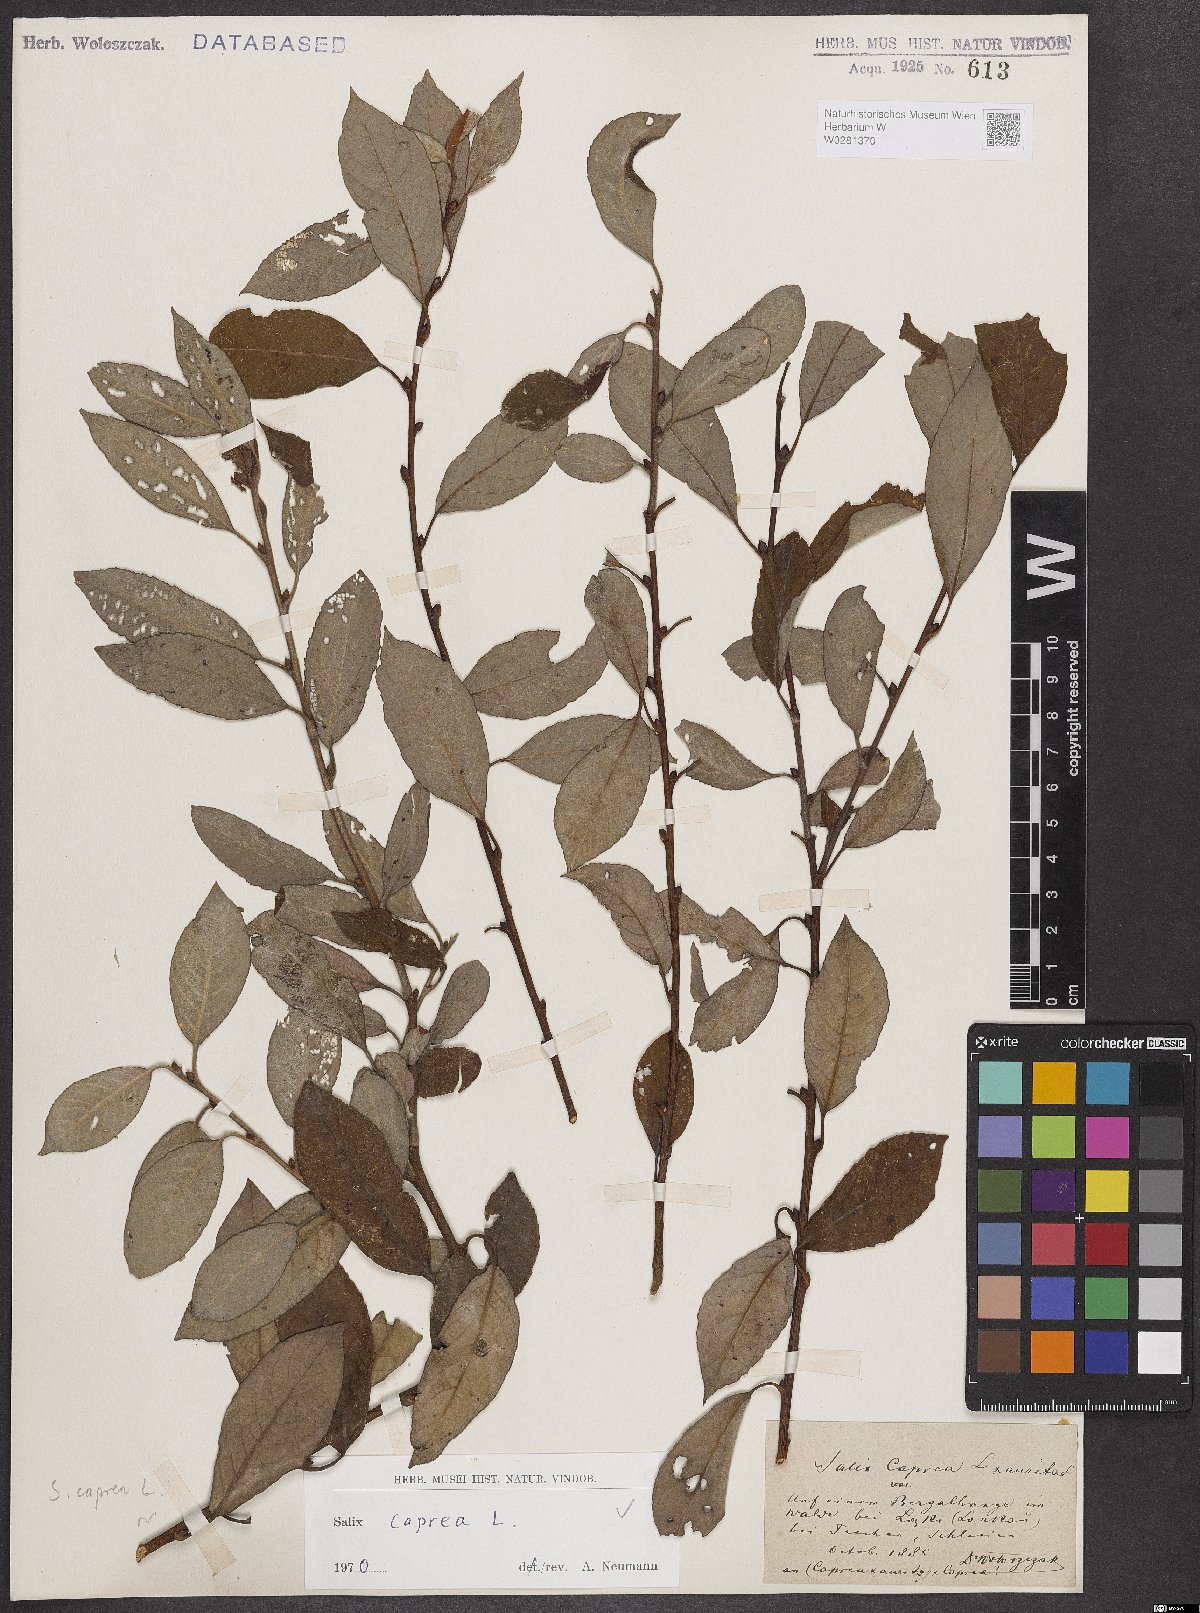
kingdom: Plantae
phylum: Tracheophyta
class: Magnoliopsida
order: Malpighiales
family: Salicaceae
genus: Salix
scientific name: Salix caprea
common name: Goat willow
